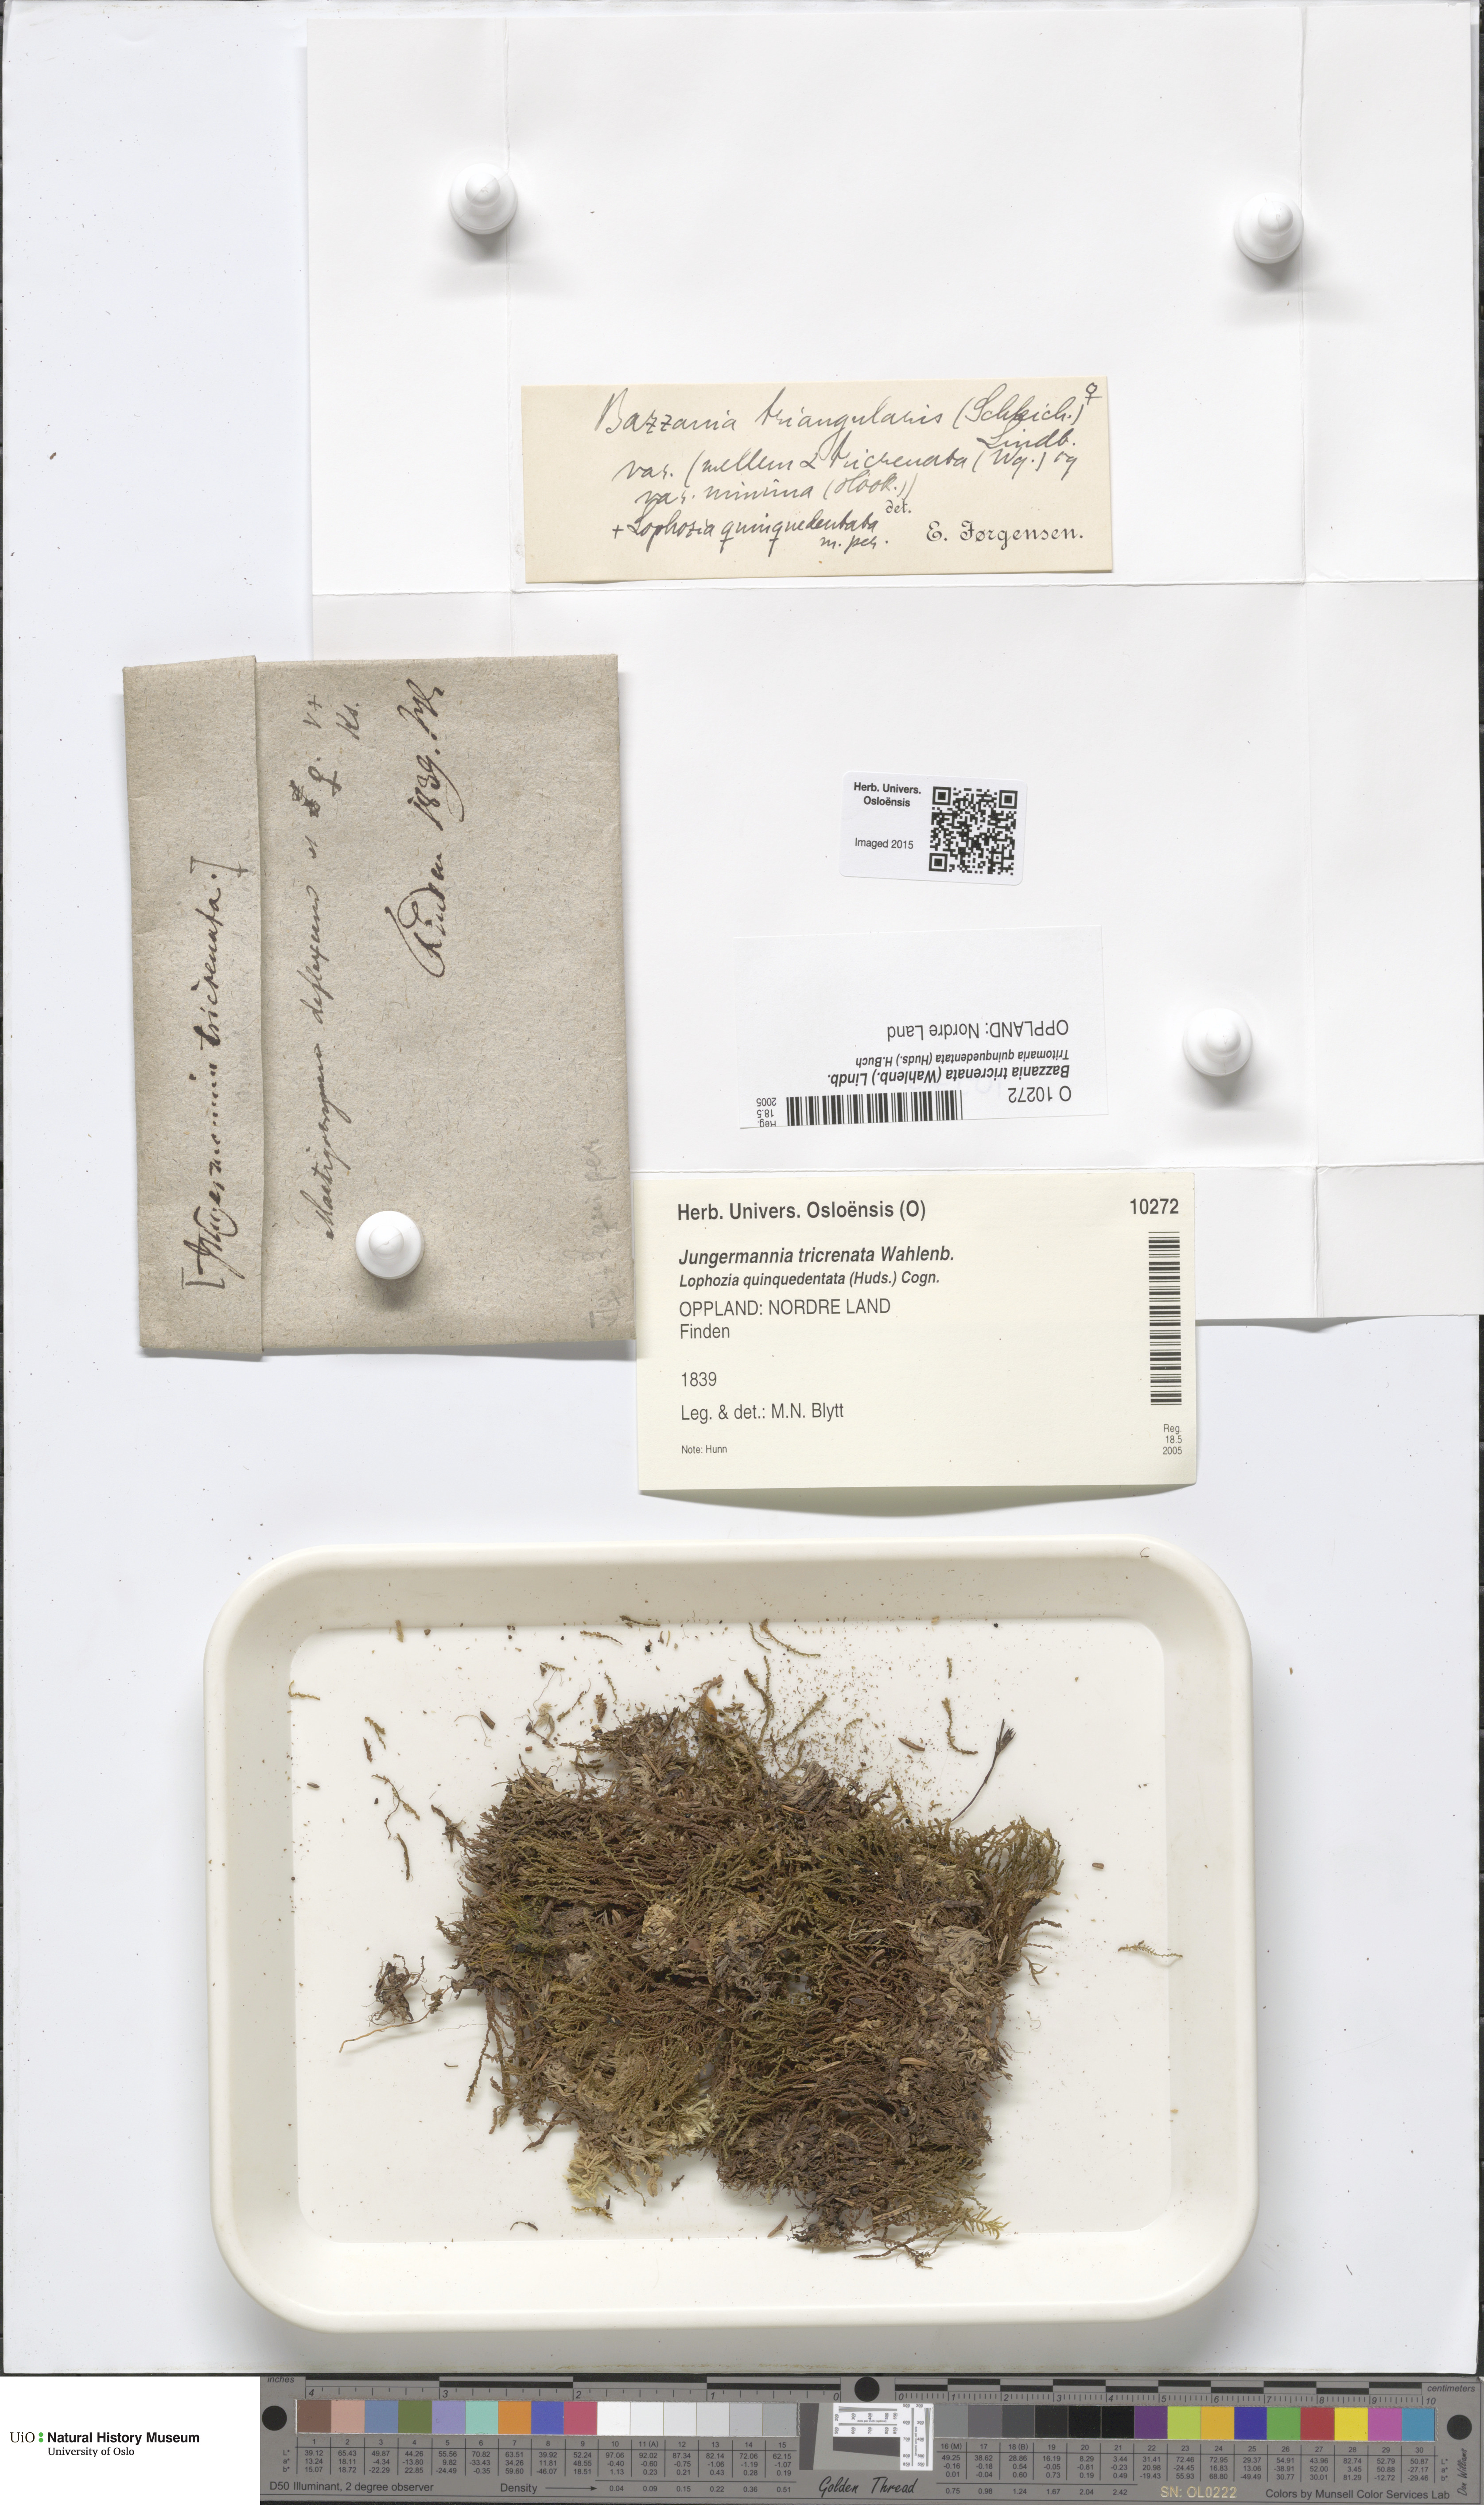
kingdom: Plantae
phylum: Marchantiophyta
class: Jungermanniopsida
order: Jungermanniales
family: Lepidoziaceae
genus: Bazzania
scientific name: Bazzania tricrenata
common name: Lesser whipwort
